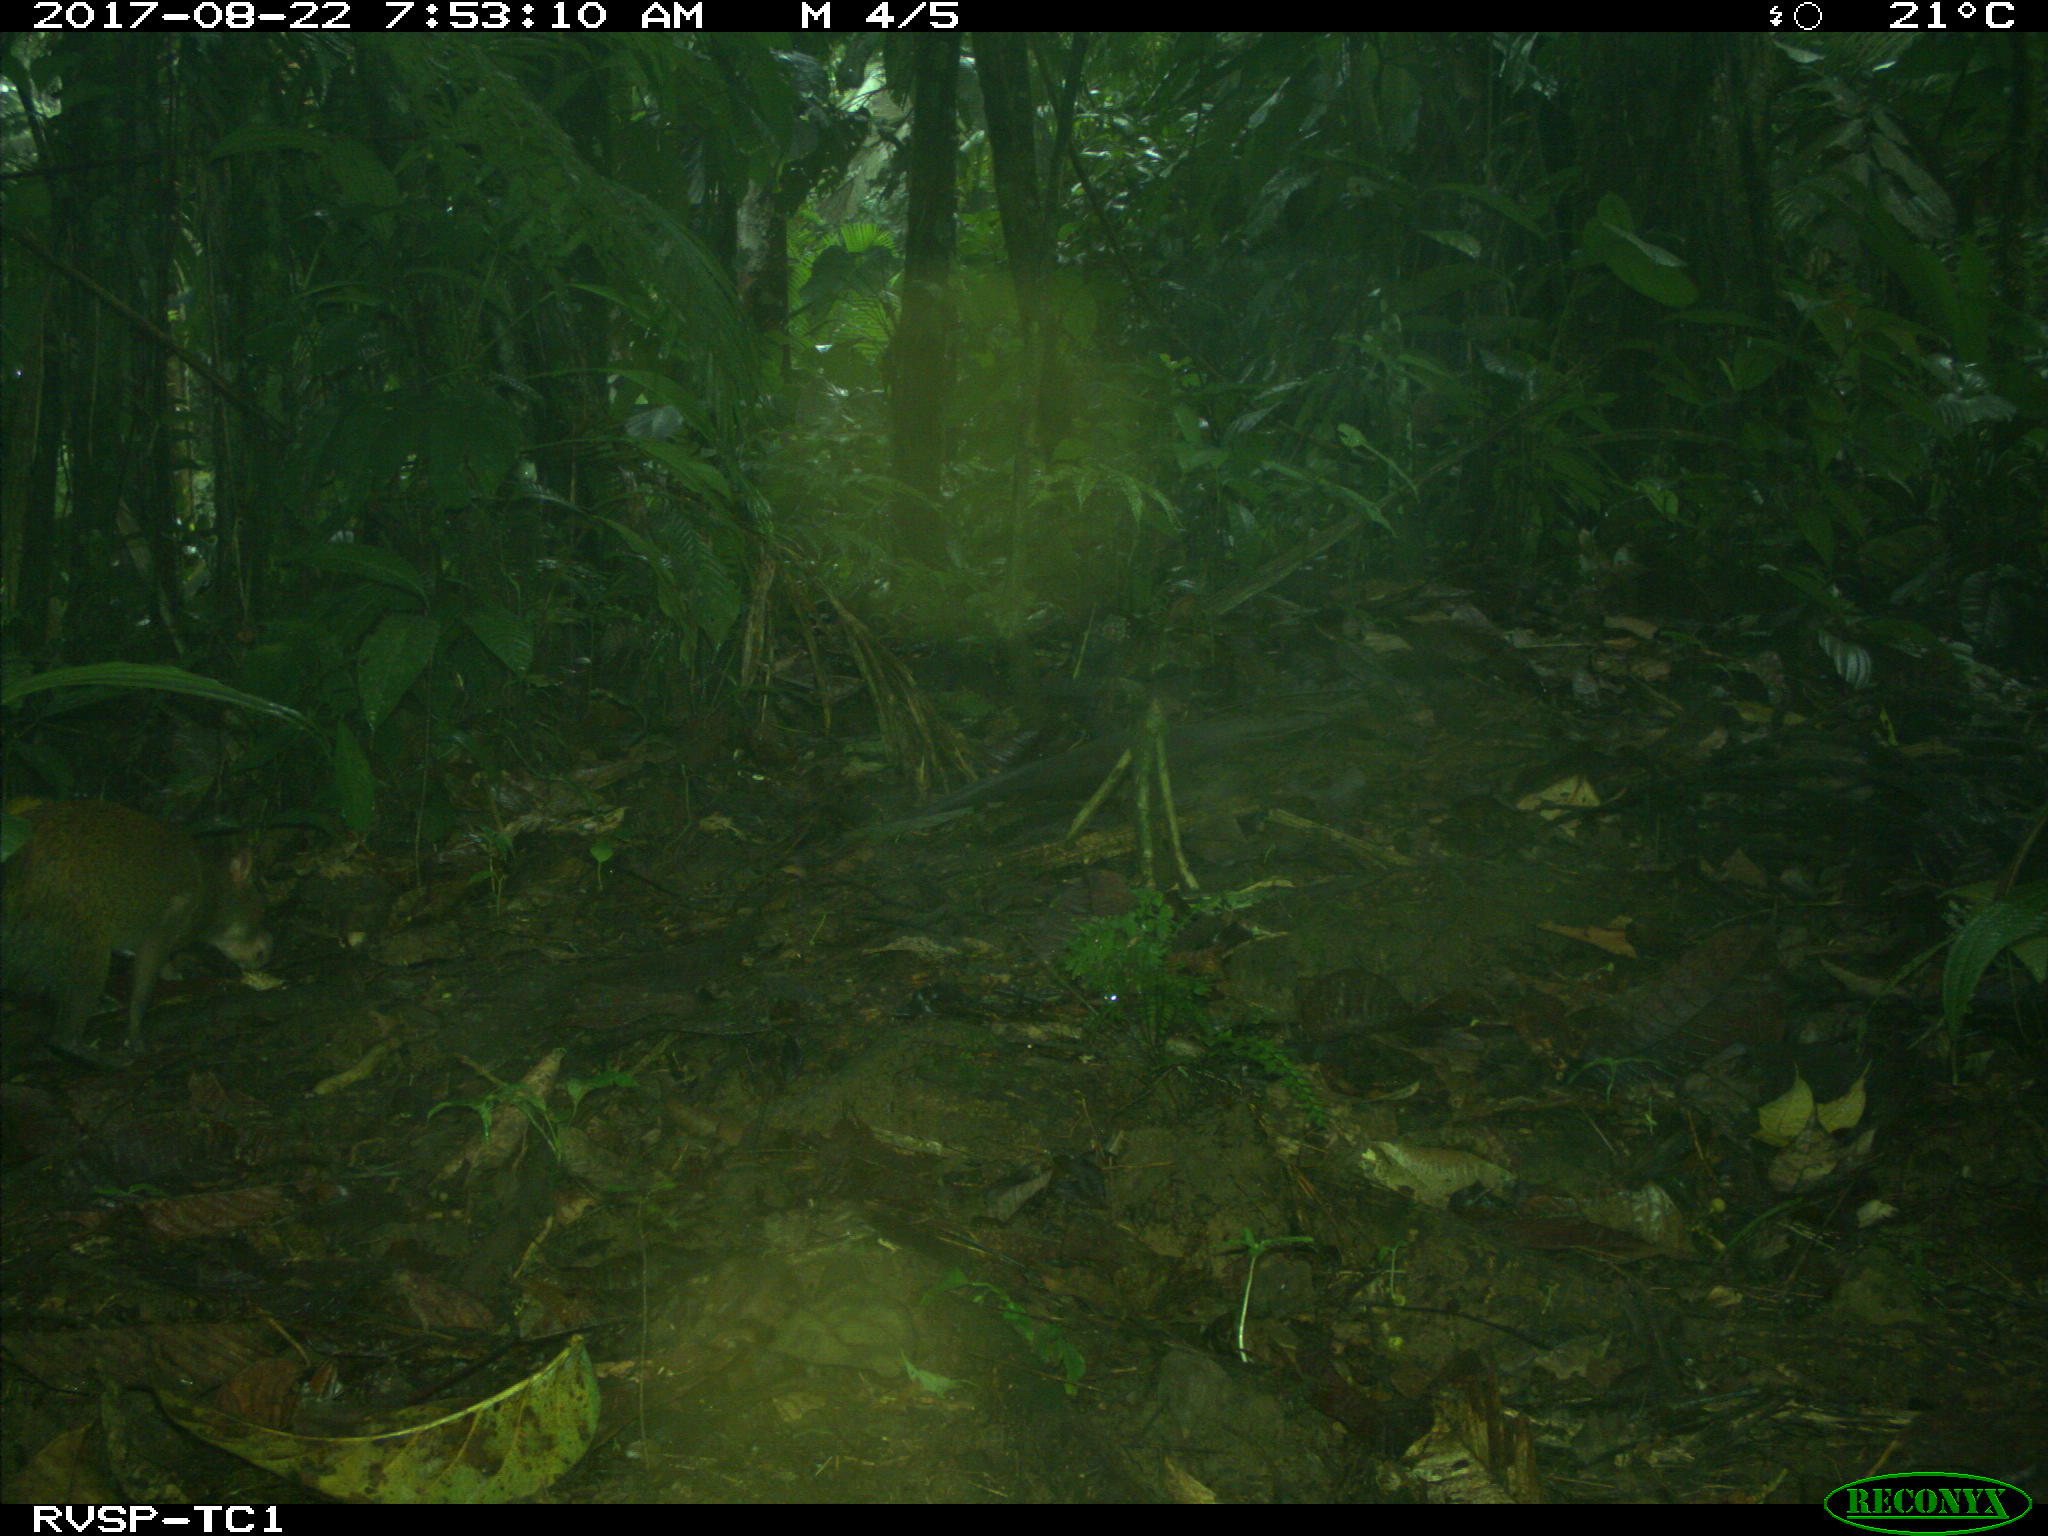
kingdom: Animalia
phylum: Chordata
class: Mammalia
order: Rodentia
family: Dasyproctidae
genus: Dasyprocta
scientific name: Dasyprocta punctata
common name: Central american agouti
